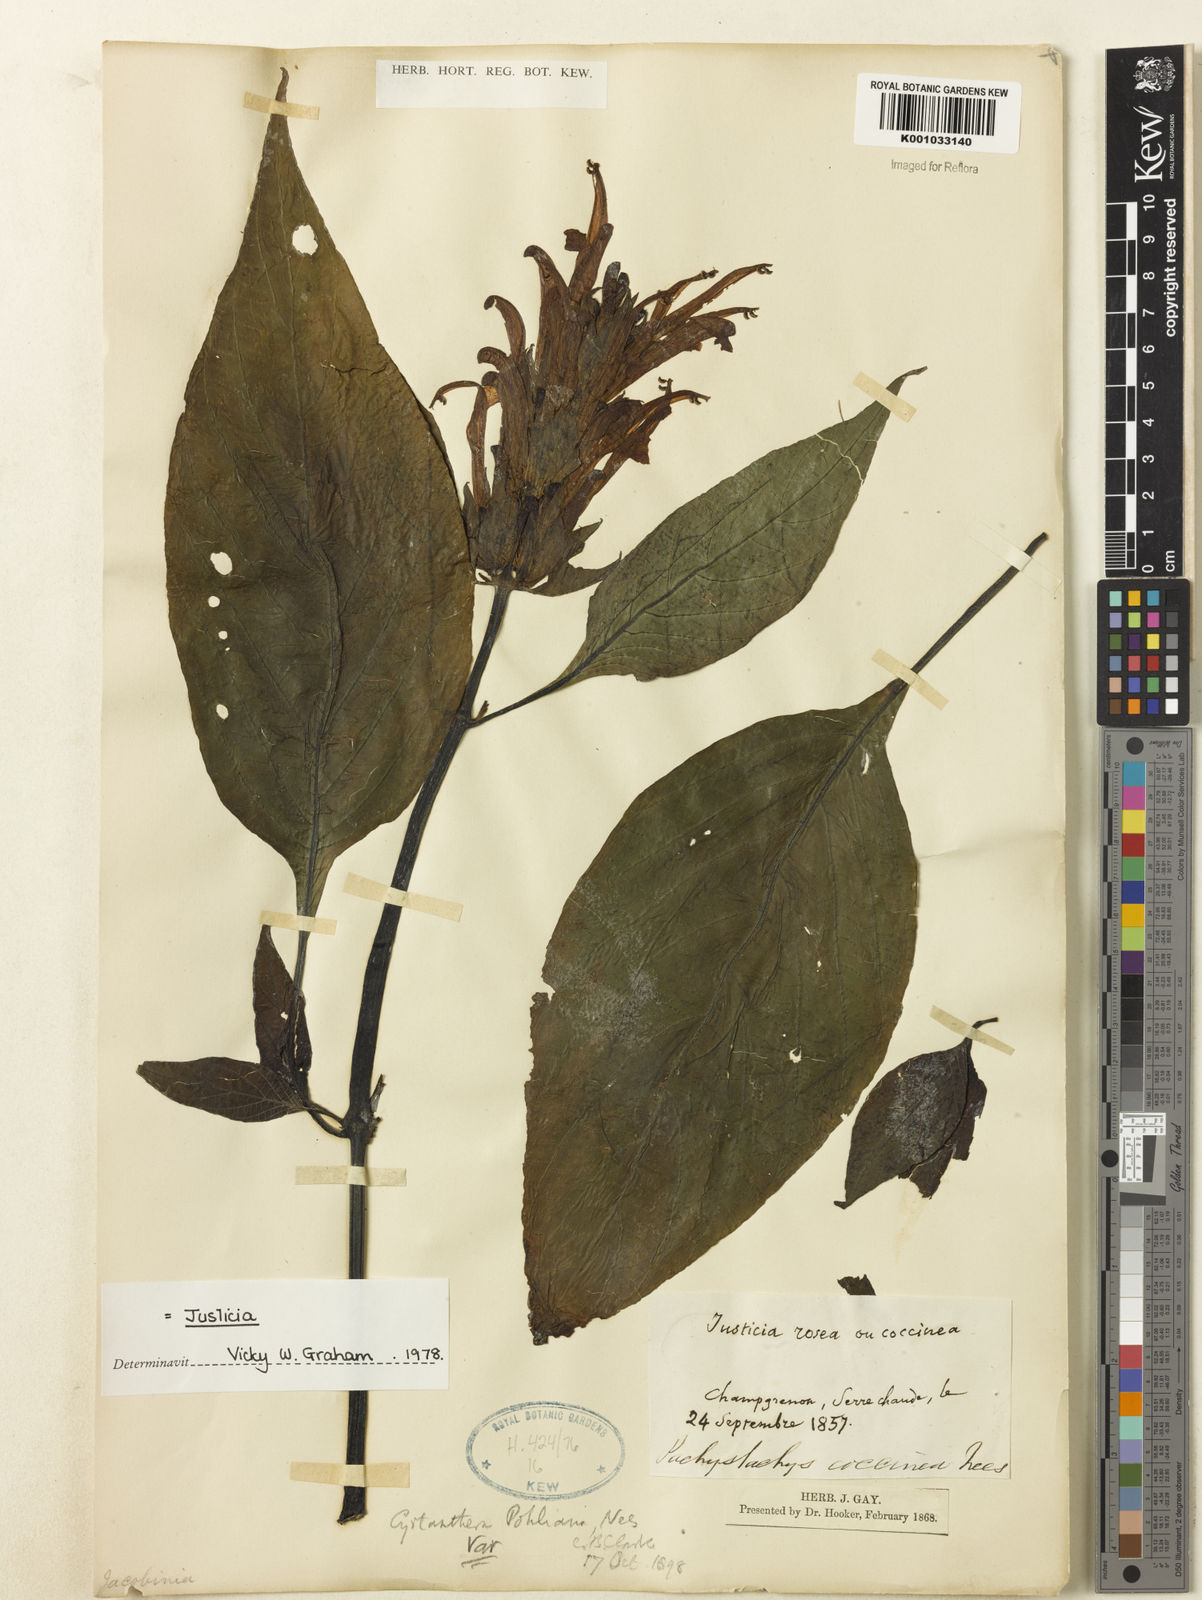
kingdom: Plantae
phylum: Tracheophyta
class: Magnoliopsida
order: Lamiales
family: Acanthaceae
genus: Justicia
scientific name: Justicia carnea
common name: Brazilian-plume
